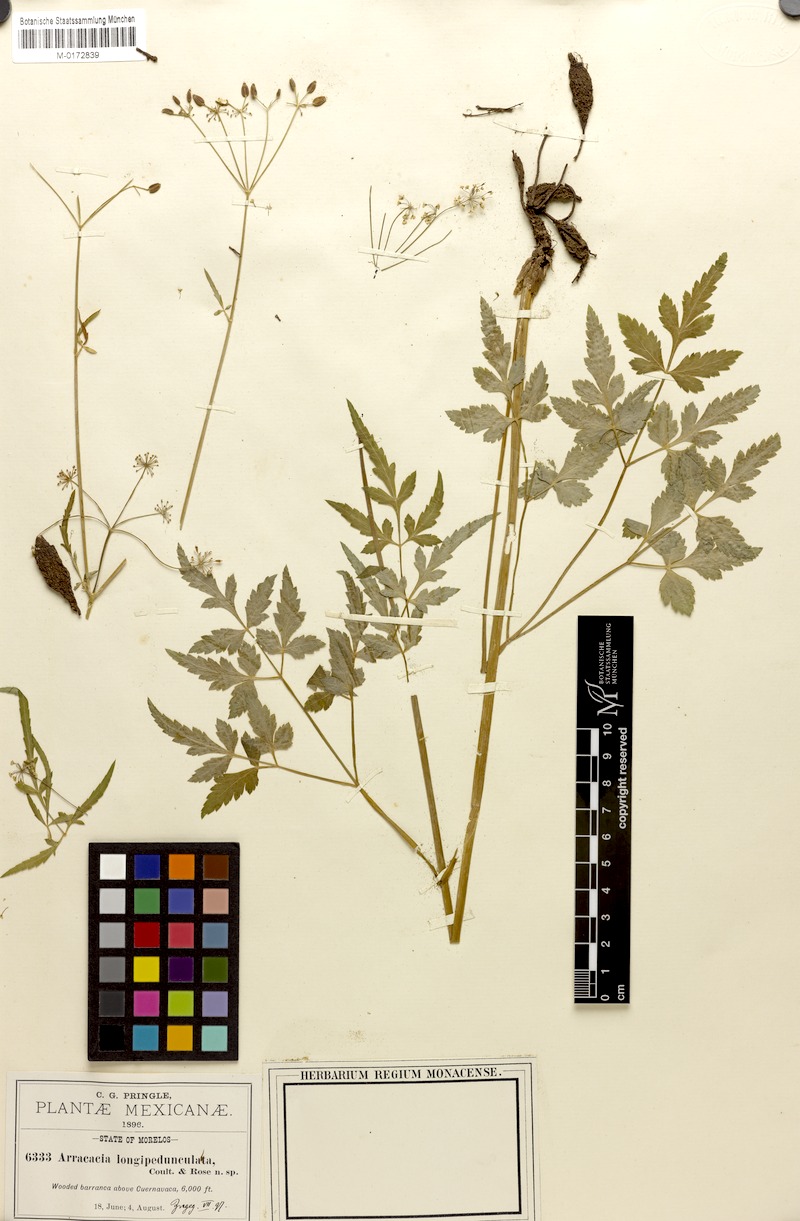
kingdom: Plantae
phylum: Tracheophyta
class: Magnoliopsida
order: Apiales
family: Apiaceae
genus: Arracacia
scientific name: Arracacia longipedunculata
